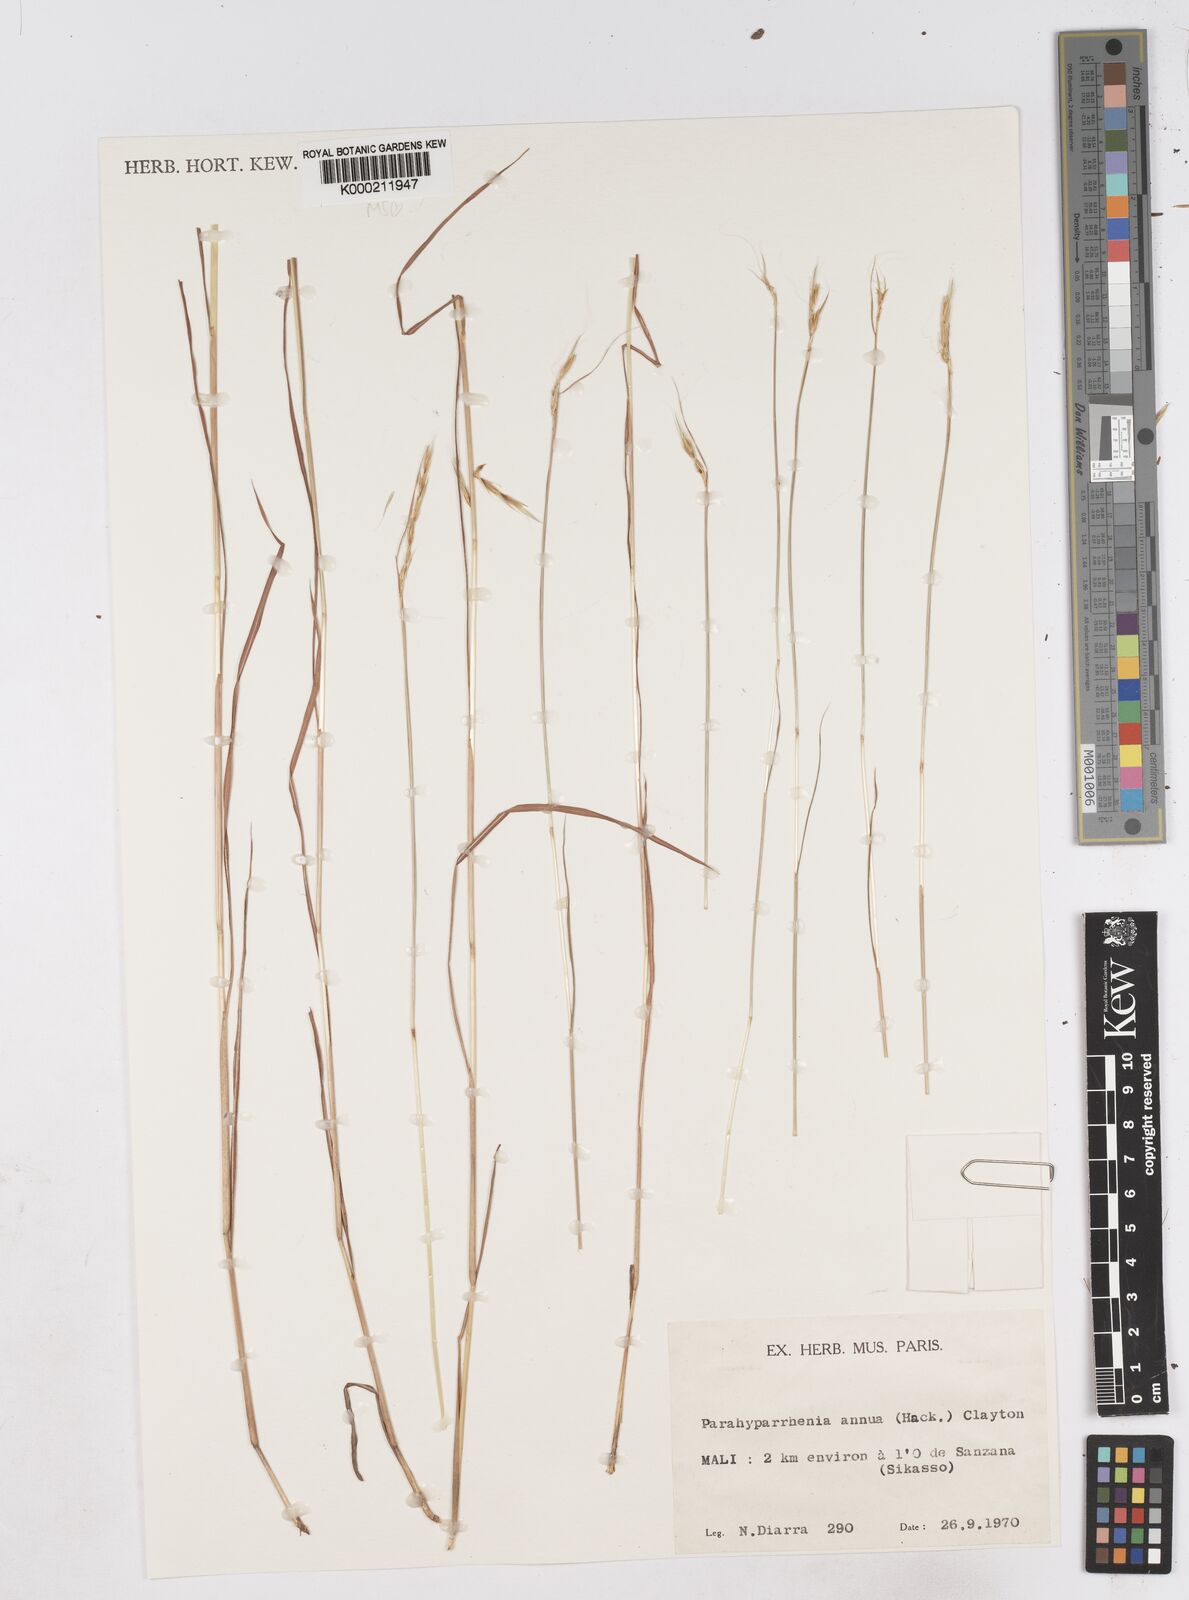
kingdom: Plantae
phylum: Tracheophyta
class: Liliopsida
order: Poales
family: Poaceae
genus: Parahyparrhenia
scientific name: Parahyparrhenia annua
